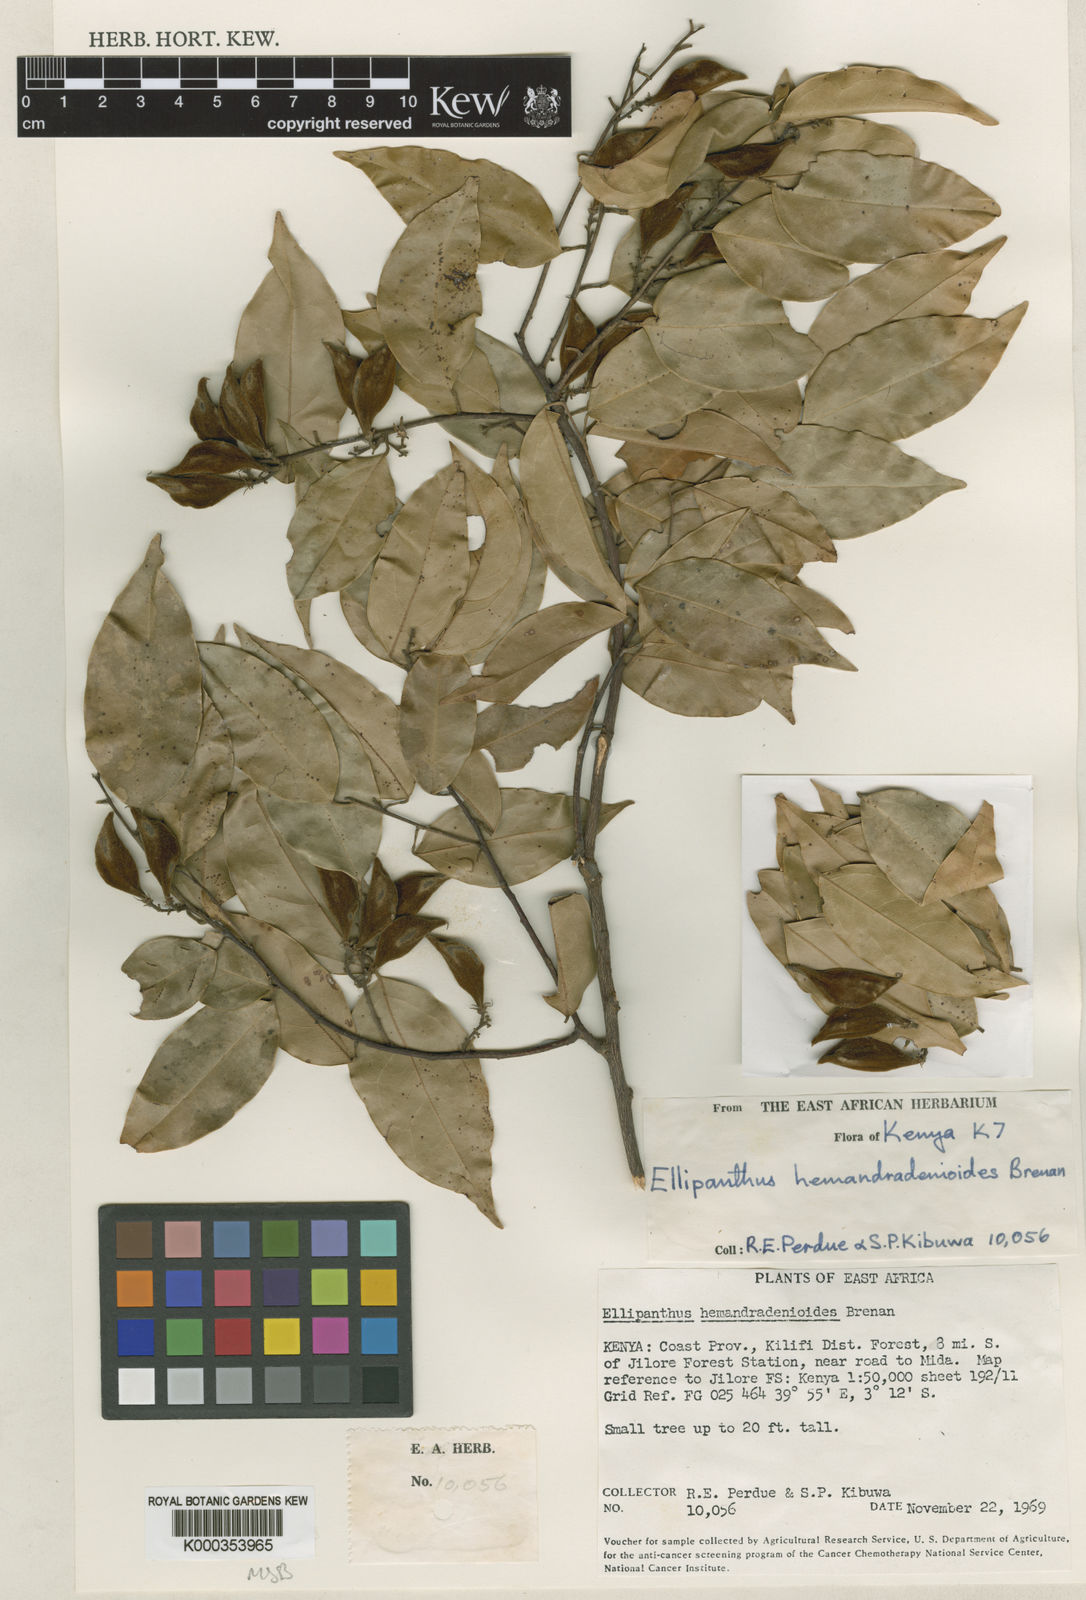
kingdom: Plantae
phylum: Tracheophyta
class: Magnoliopsida
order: Oxalidales
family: Connaraceae
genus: Ellipanthus
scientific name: Ellipanthus madagascariensis
